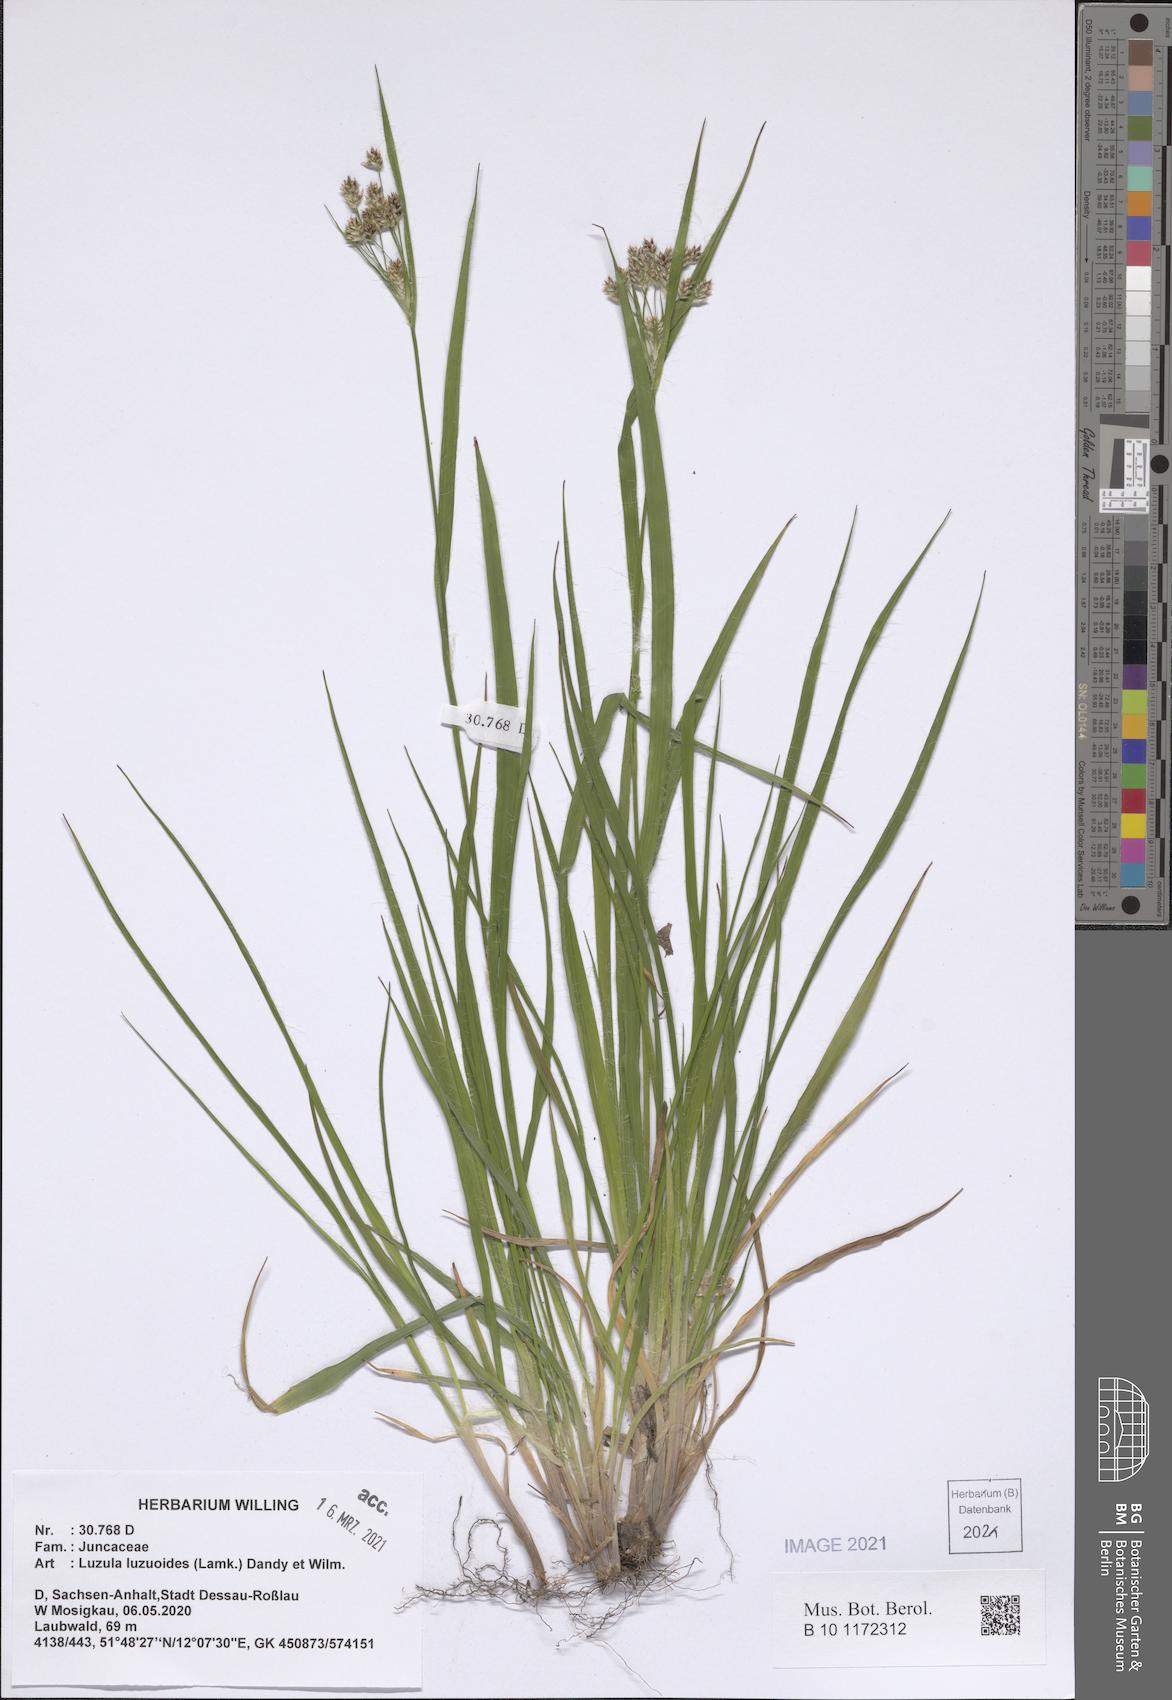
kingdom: Plantae
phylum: Tracheophyta
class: Liliopsida
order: Poales
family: Juncaceae
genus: Luzula
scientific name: Luzula luzuloides
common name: White wood-rush
